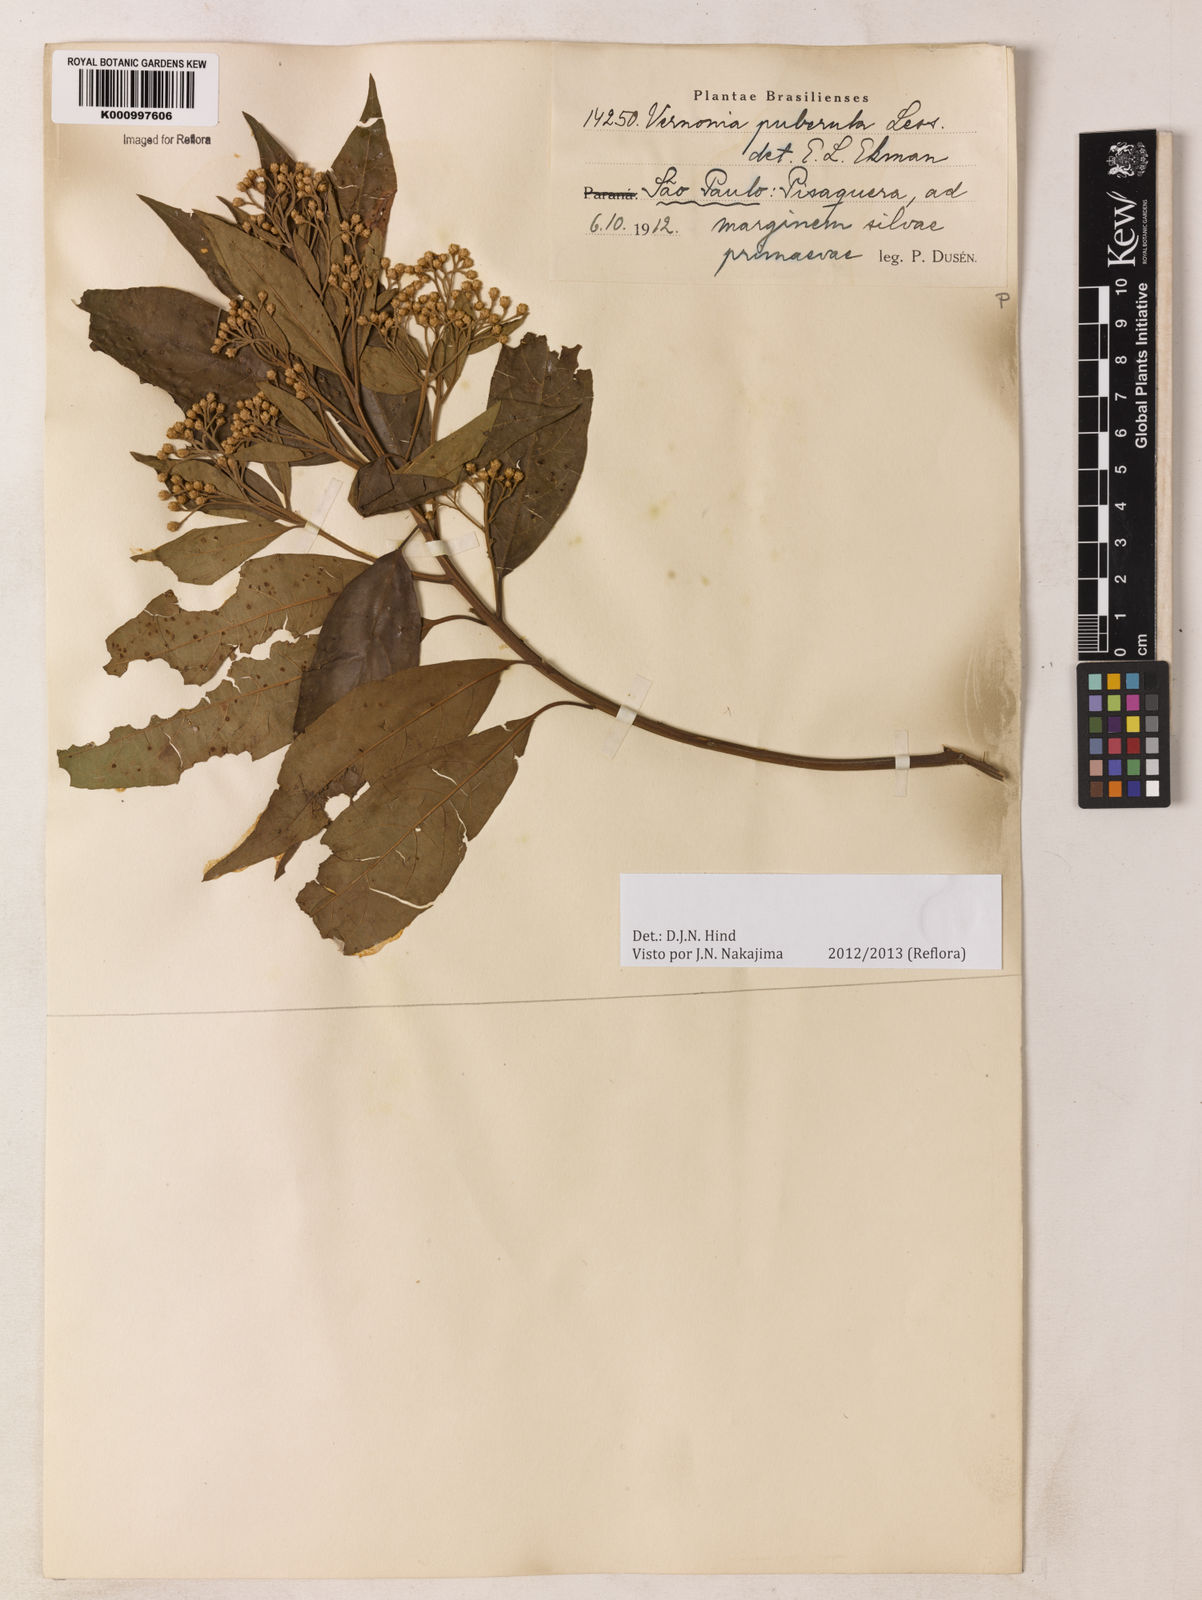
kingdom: Plantae
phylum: Tracheophyta
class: Magnoliopsida
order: Asterales
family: Asteraceae
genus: Vernonanthura
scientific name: Vernonanthura puberula
